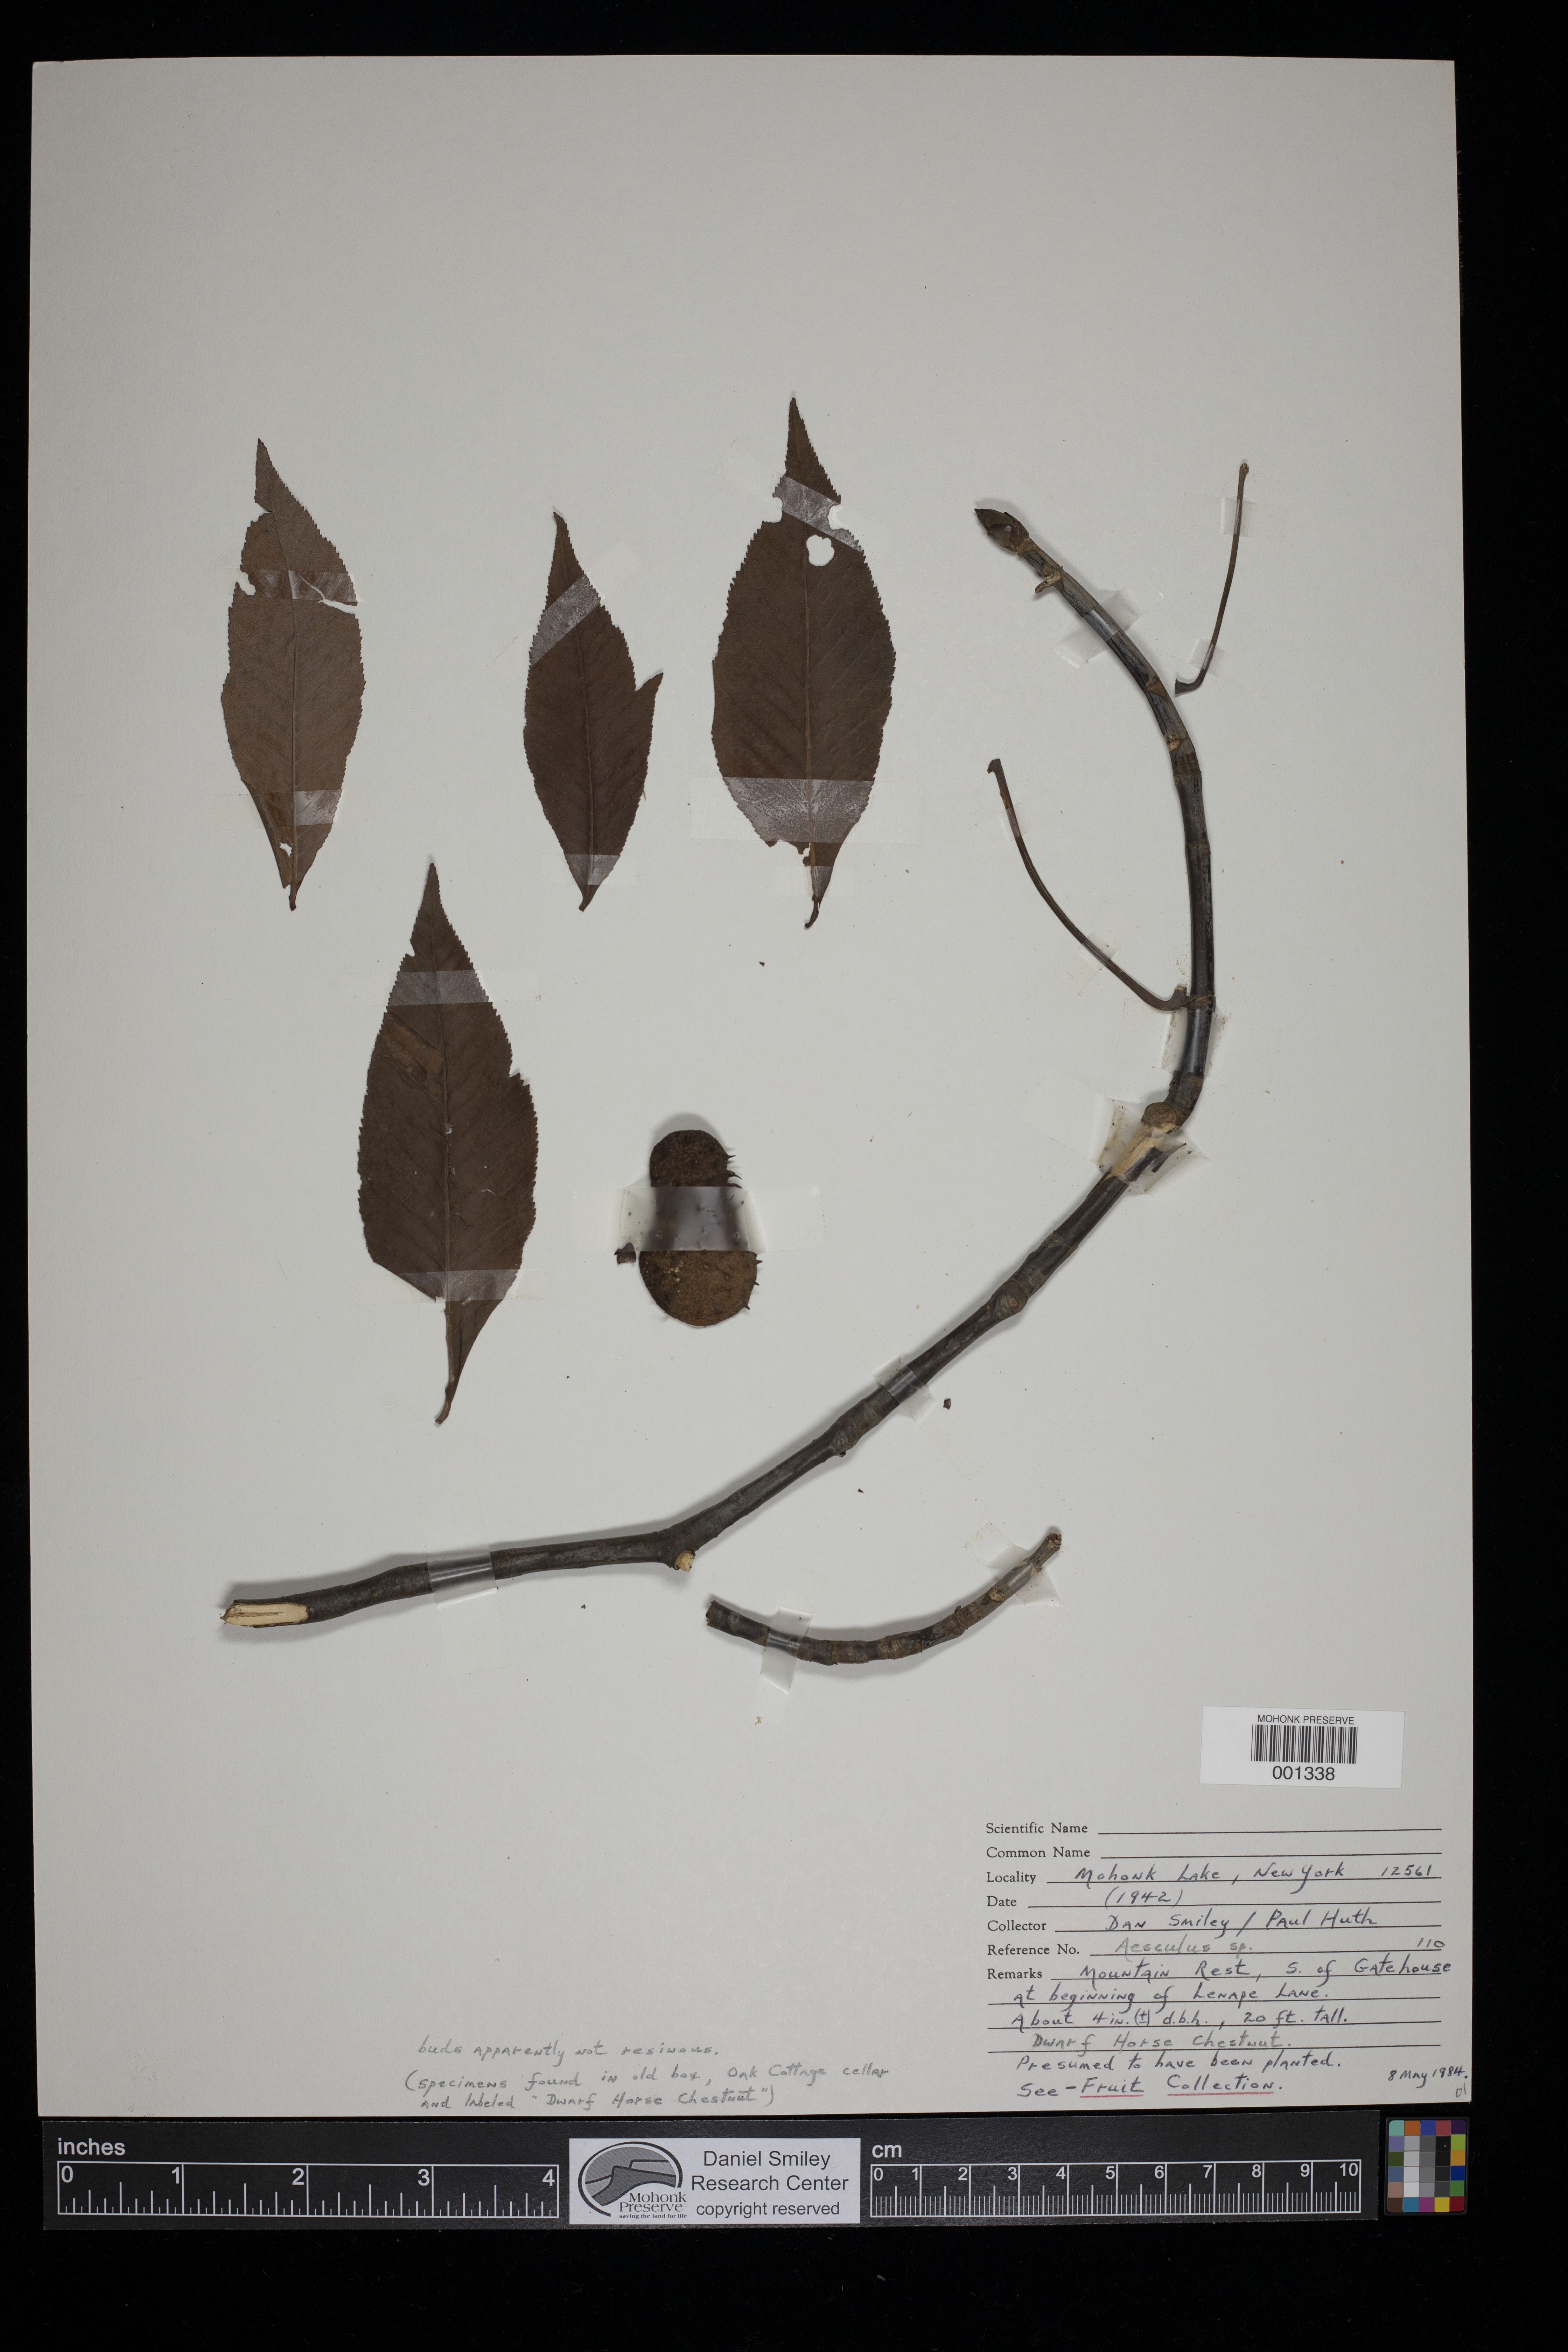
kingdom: Plantae
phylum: Tracheophyta
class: Magnoliopsida
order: Sapindales
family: Sapindaceae
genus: Aesculus
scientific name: Aesculus
